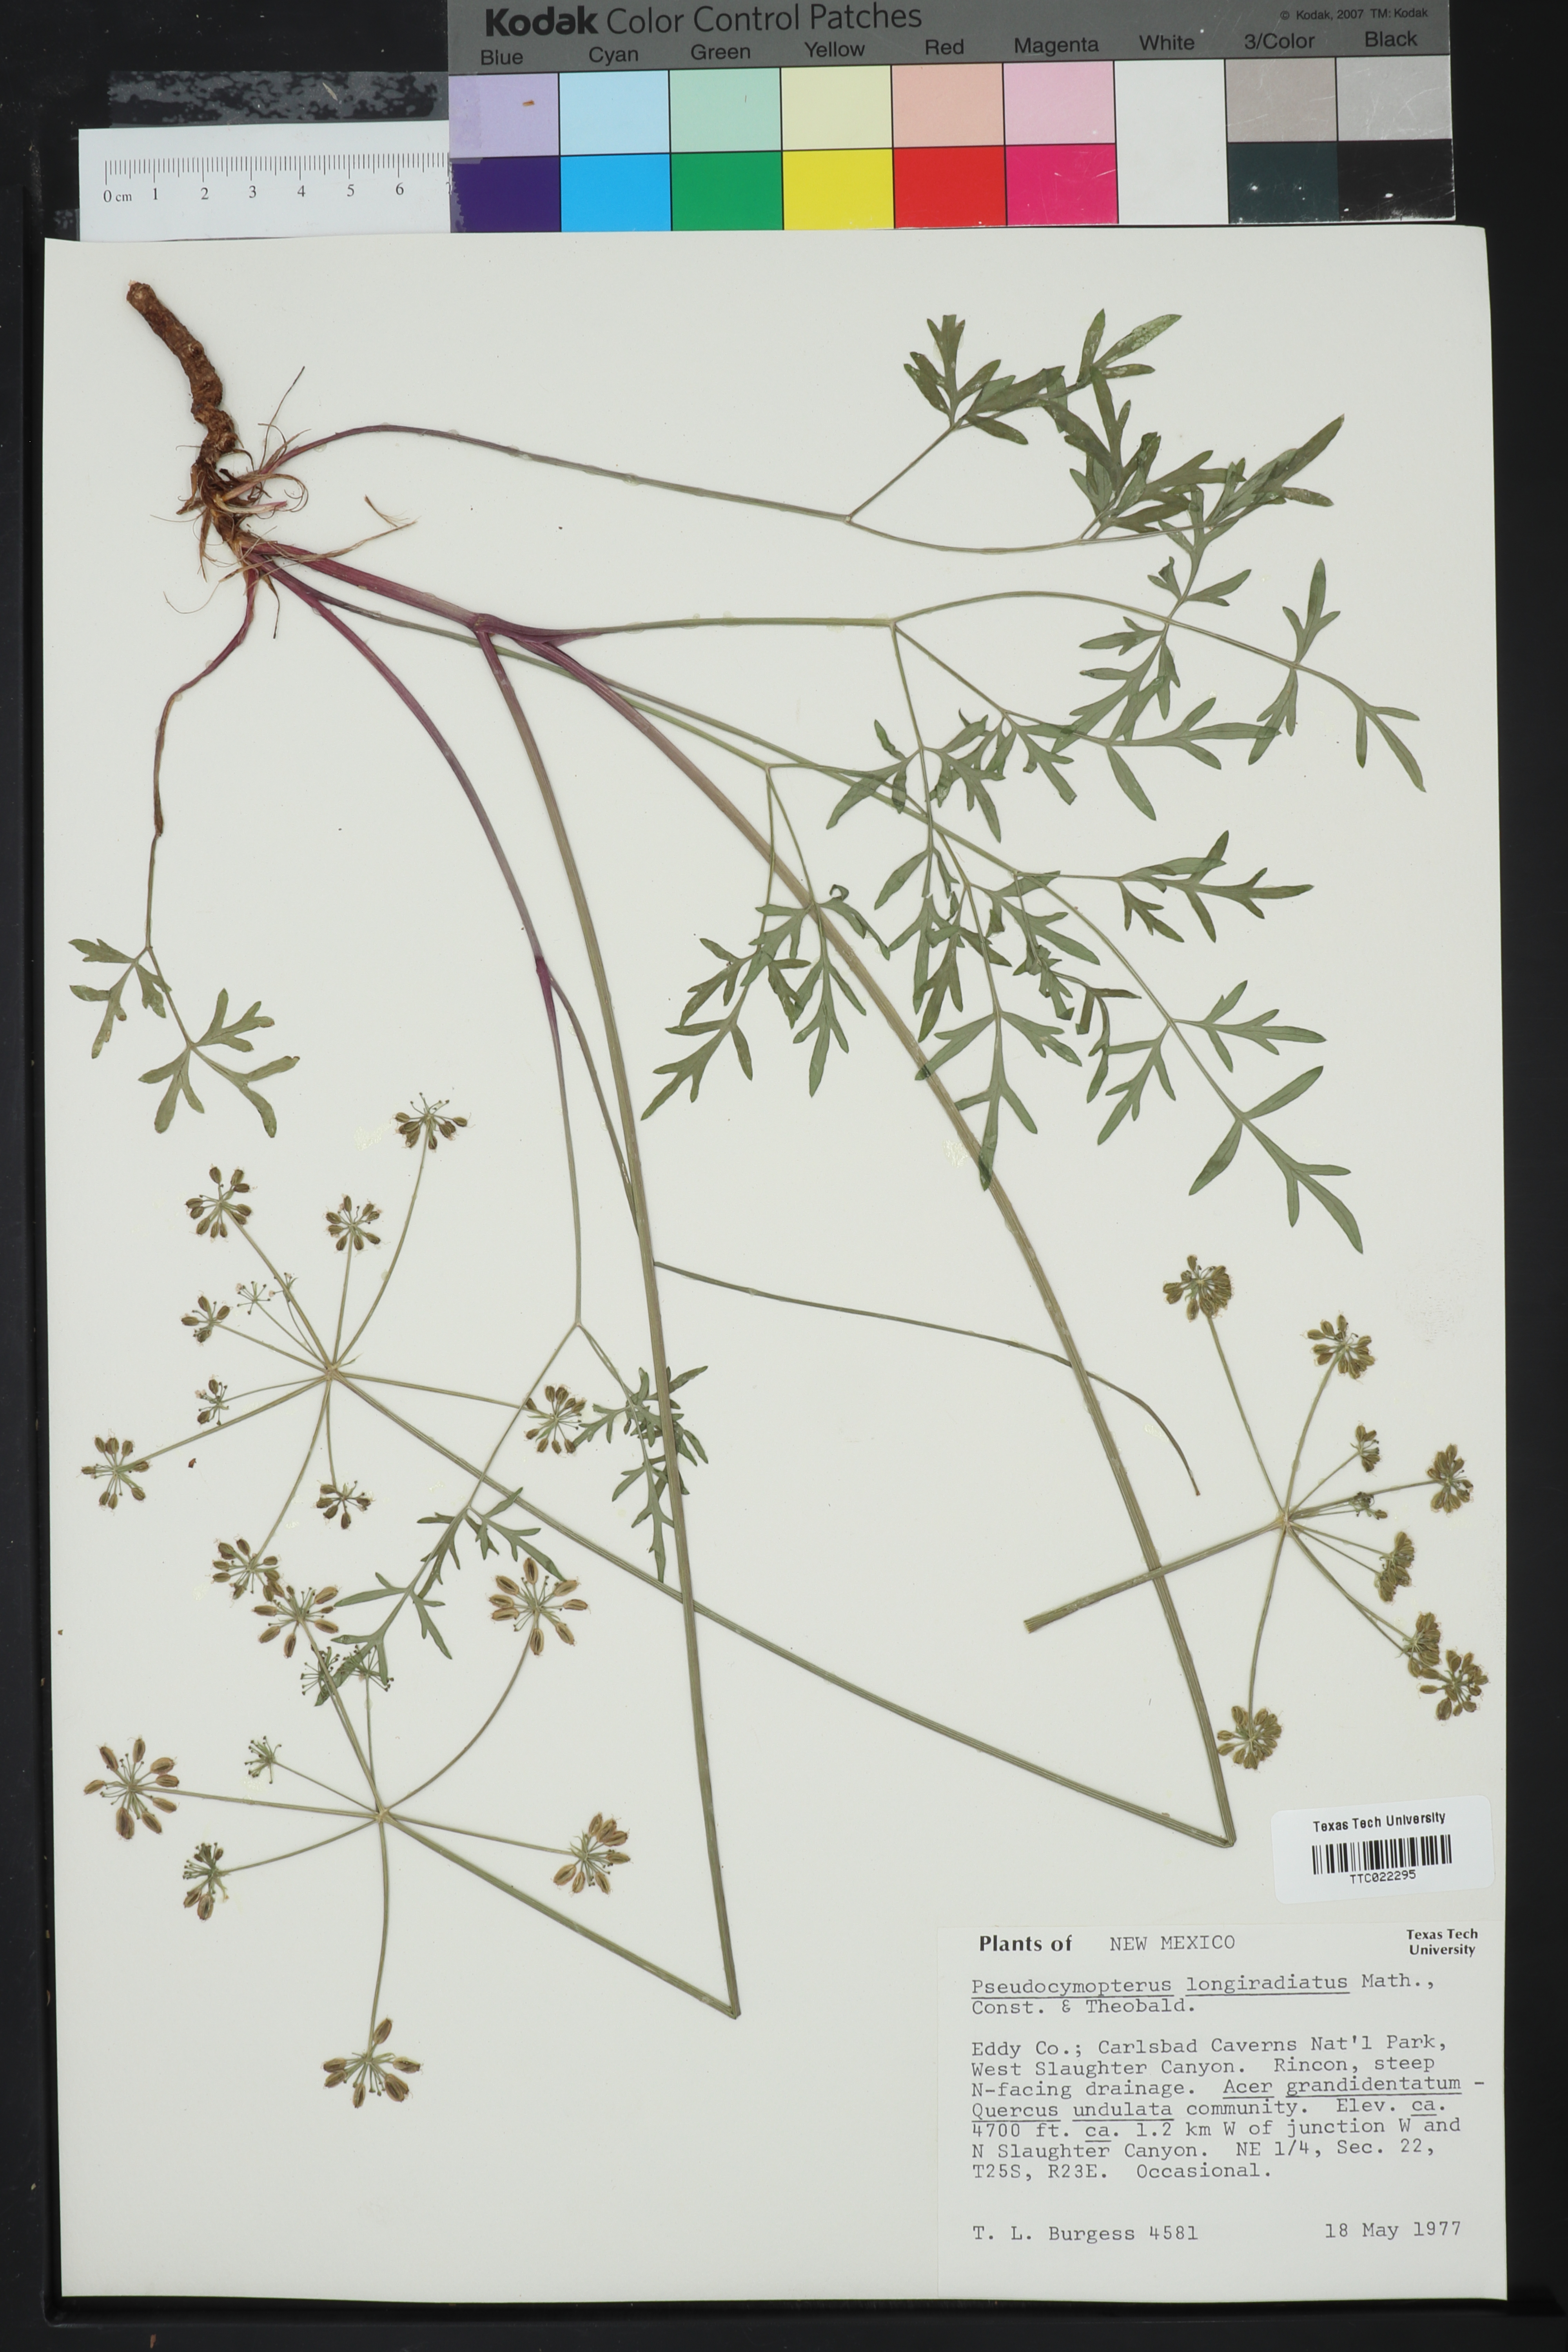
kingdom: Plantae
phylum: Tracheophyta
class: Magnoliopsida
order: Apiales
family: Apiaceae
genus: Pseudocymopterus
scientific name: Pseudocymopterus longiradiatus
